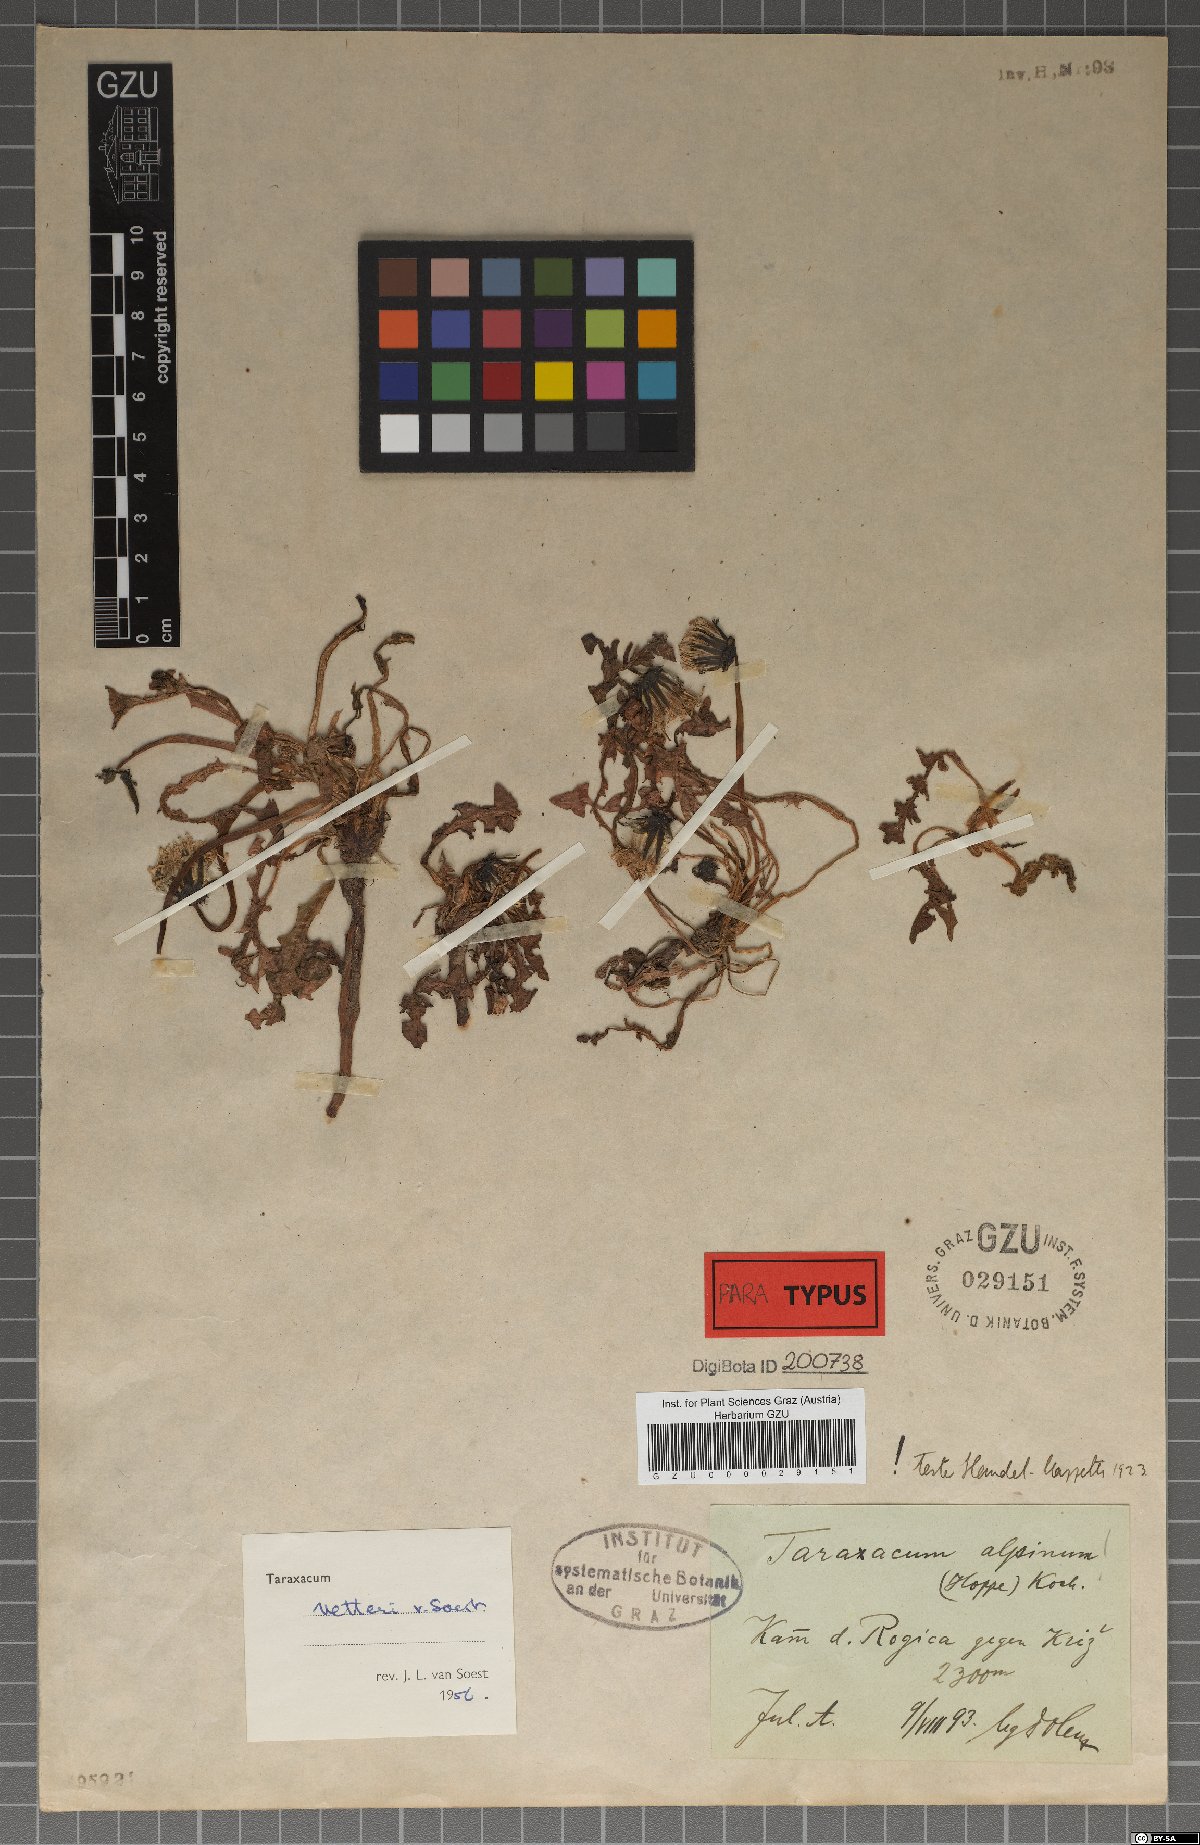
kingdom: Plantae
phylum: Tracheophyta
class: Magnoliopsida
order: Asterales
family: Asteraceae
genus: Taraxacum
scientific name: Taraxacum vetteri
